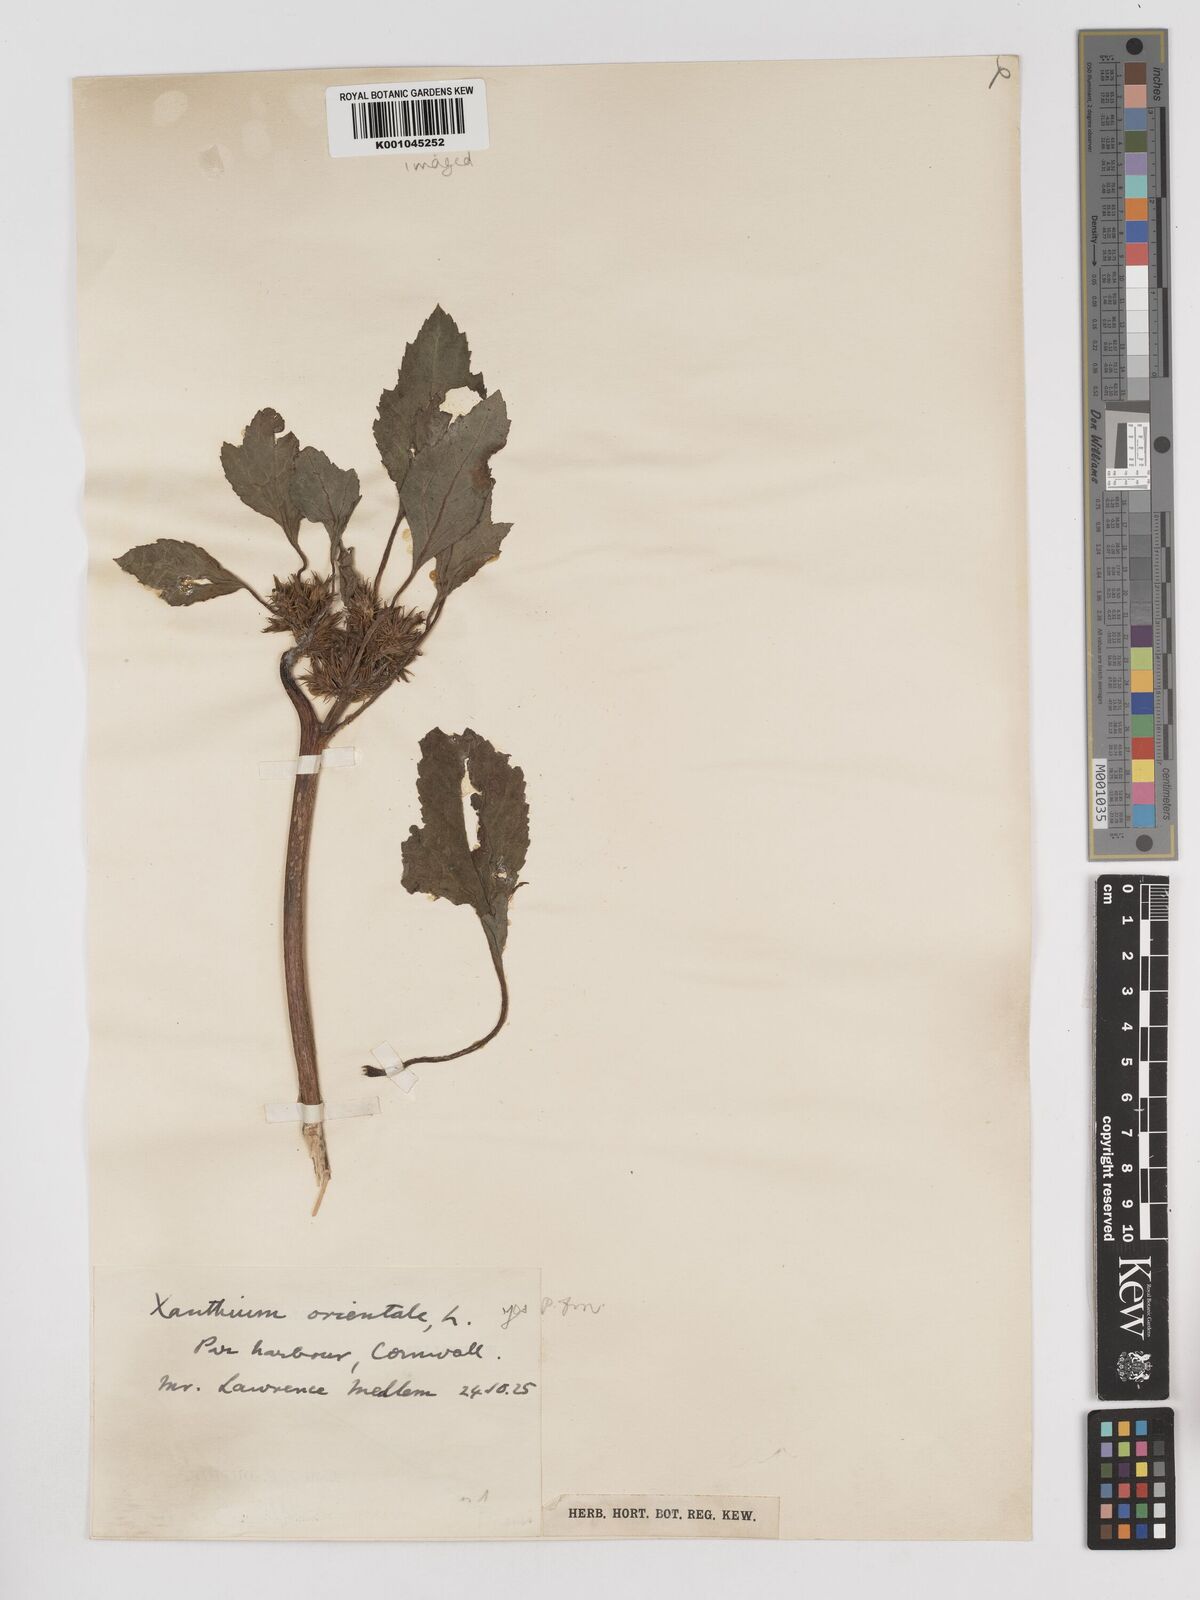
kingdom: Plantae
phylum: Tracheophyta
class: Magnoliopsida
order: Asterales
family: Asteraceae
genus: Xanthium
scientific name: Xanthium strumarium
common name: Rough cocklebur
